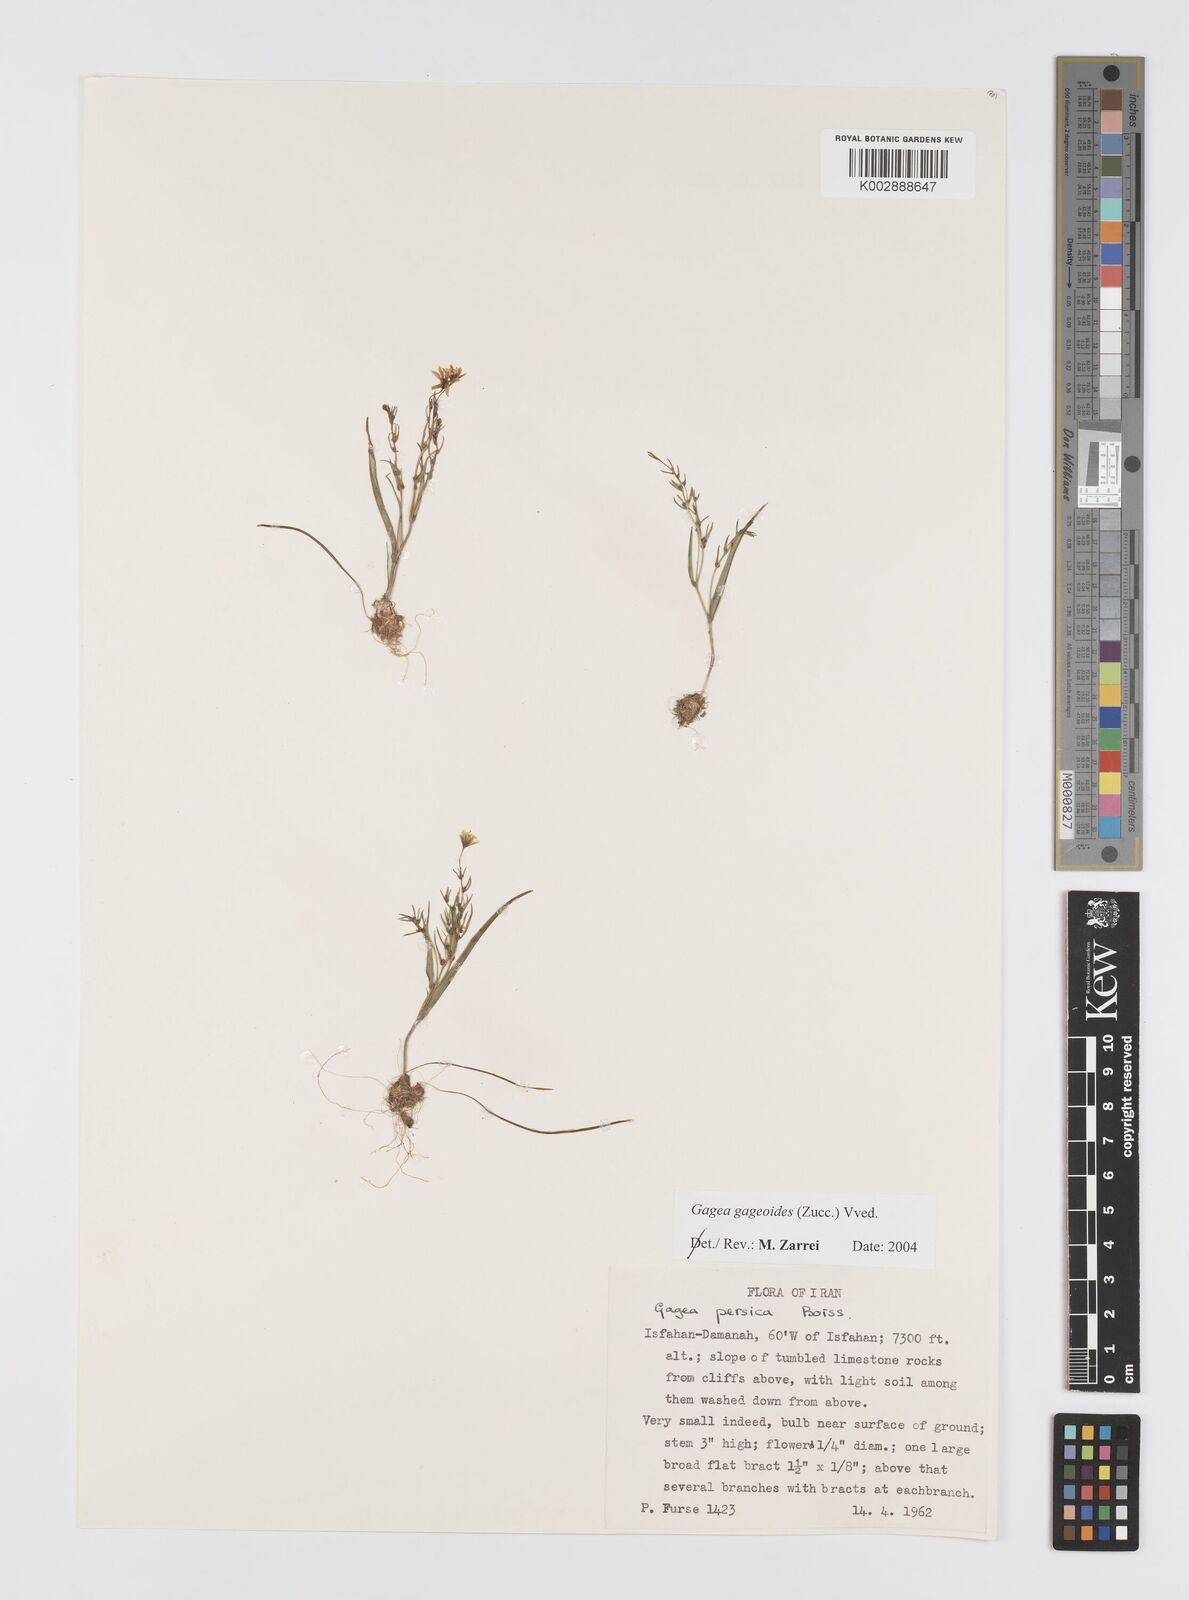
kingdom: Plantae
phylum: Tracheophyta
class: Liliopsida
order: Liliales
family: Liliaceae
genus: Gagea
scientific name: Gagea gageoides
